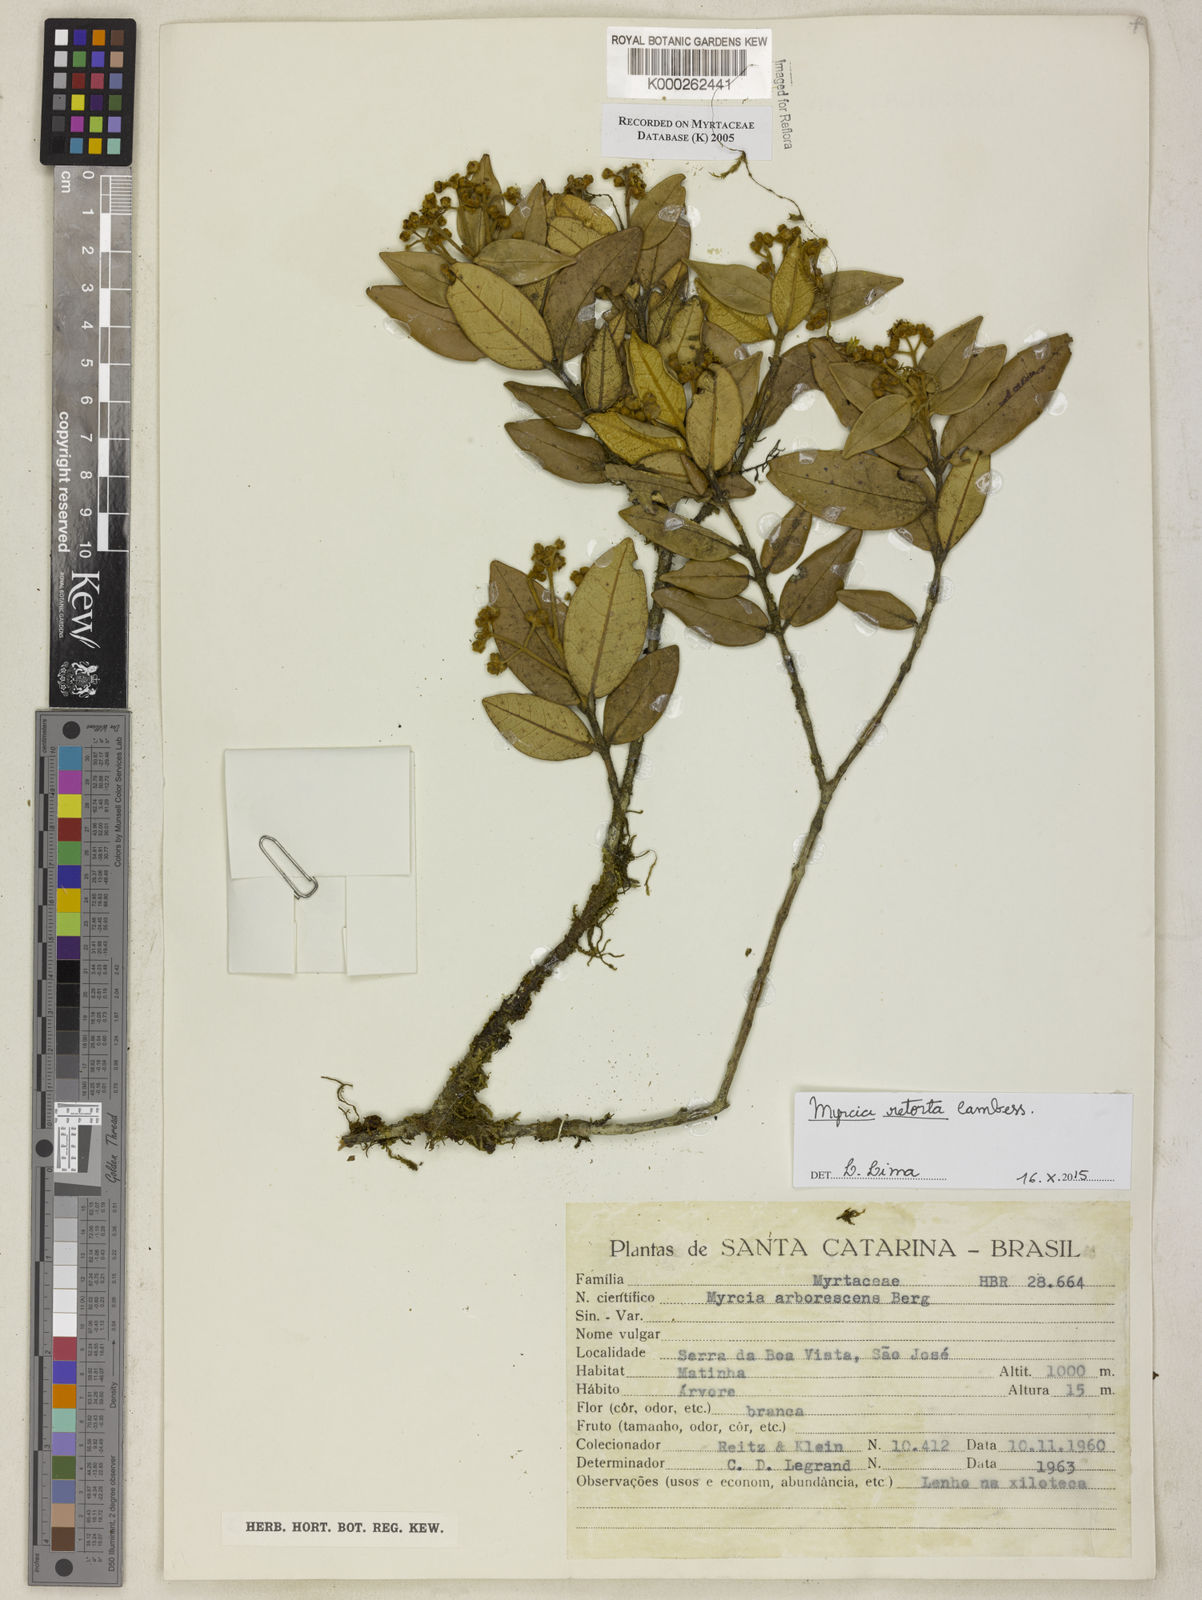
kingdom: Plantae
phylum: Tracheophyta
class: Magnoliopsida
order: Myrtales
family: Myrtaceae
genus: Myrcia
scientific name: Myrcia retorta
